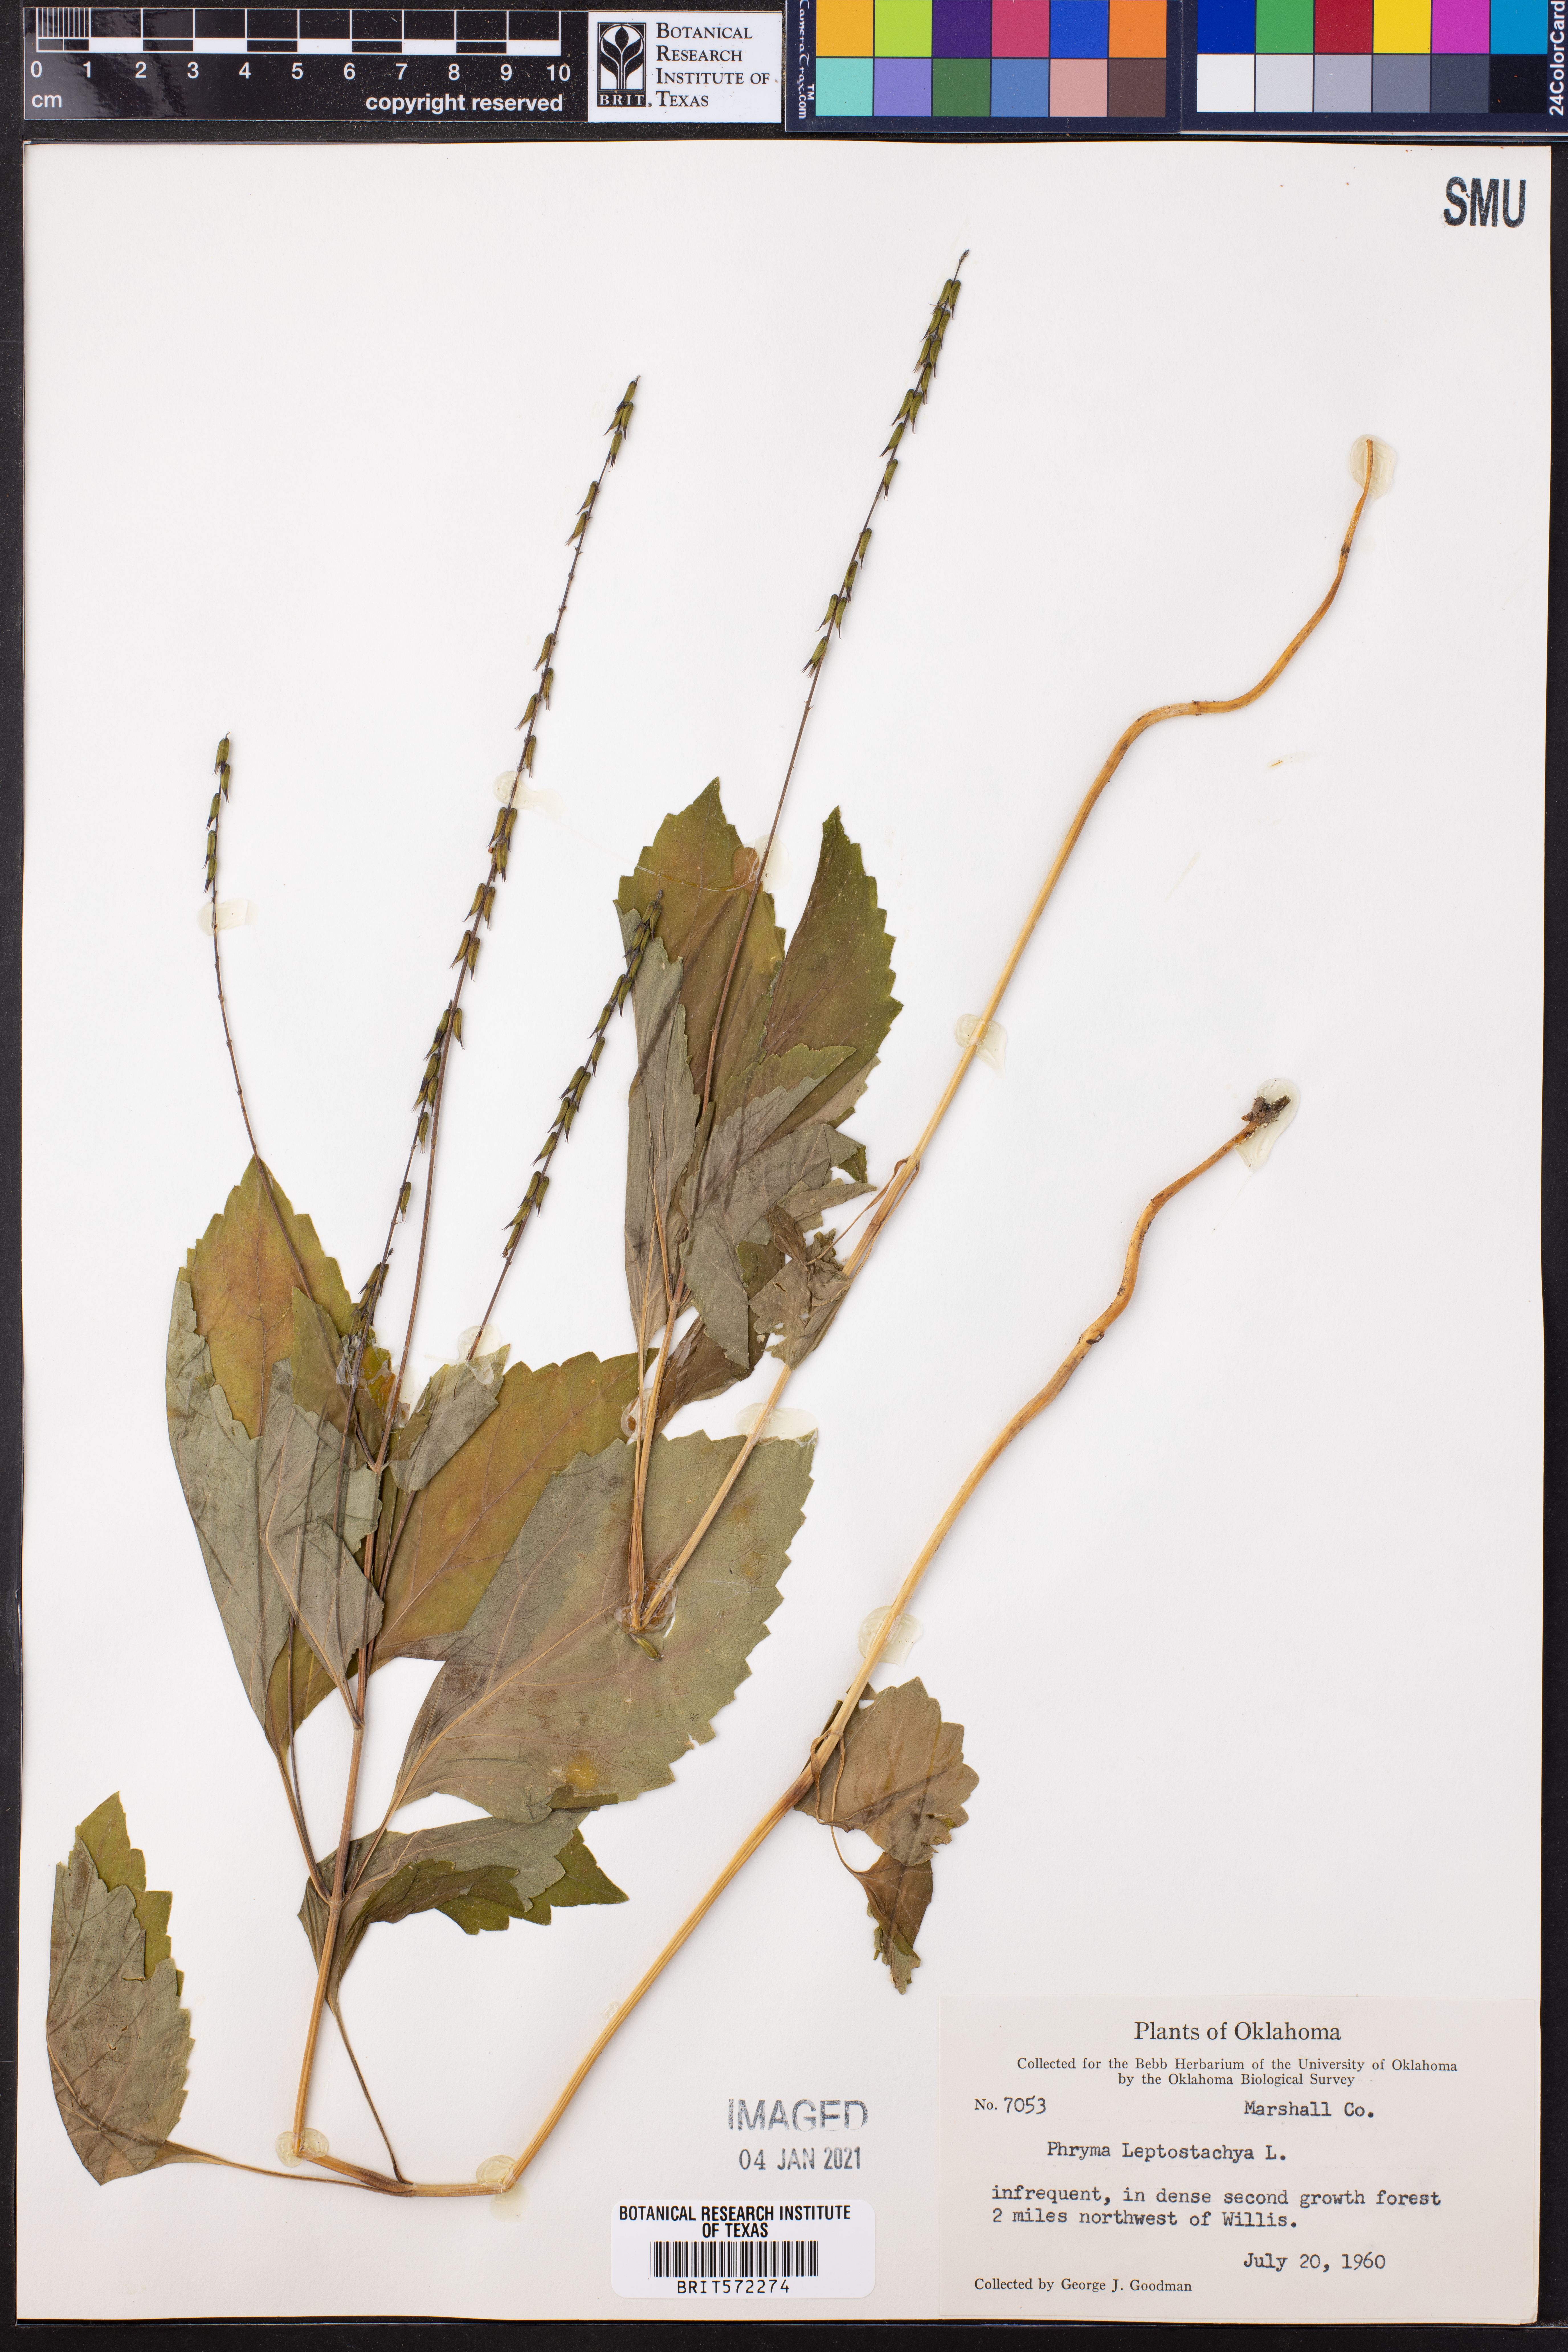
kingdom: Plantae
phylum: Tracheophyta
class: Magnoliopsida
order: Lamiales
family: Phrymaceae
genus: Phryma
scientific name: Phryma leptostachya
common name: American lopseed
